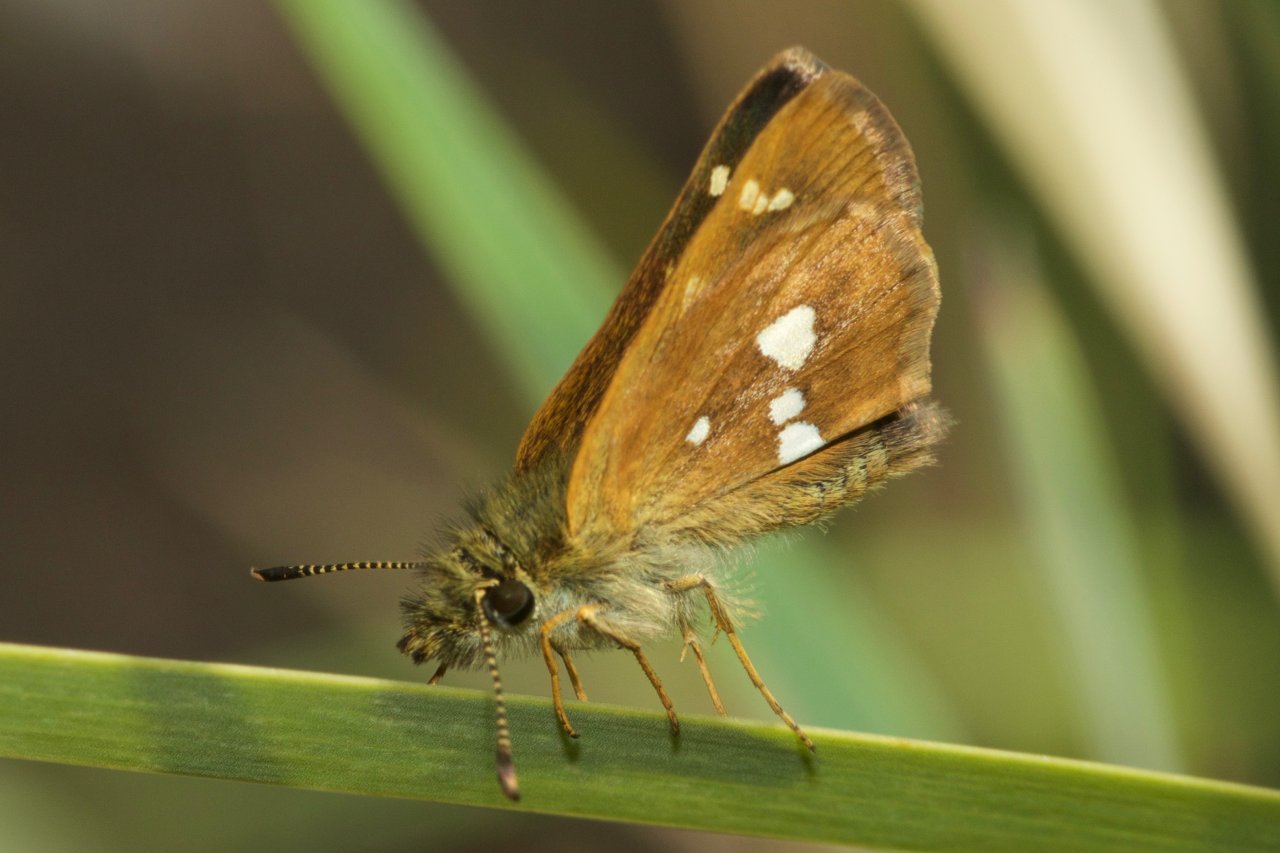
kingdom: Animalia
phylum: Arthropoda
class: Insecta
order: Lepidoptera
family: Hesperiidae
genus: Piruna
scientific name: Piruna polingii
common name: Four-spotted Skipperling
